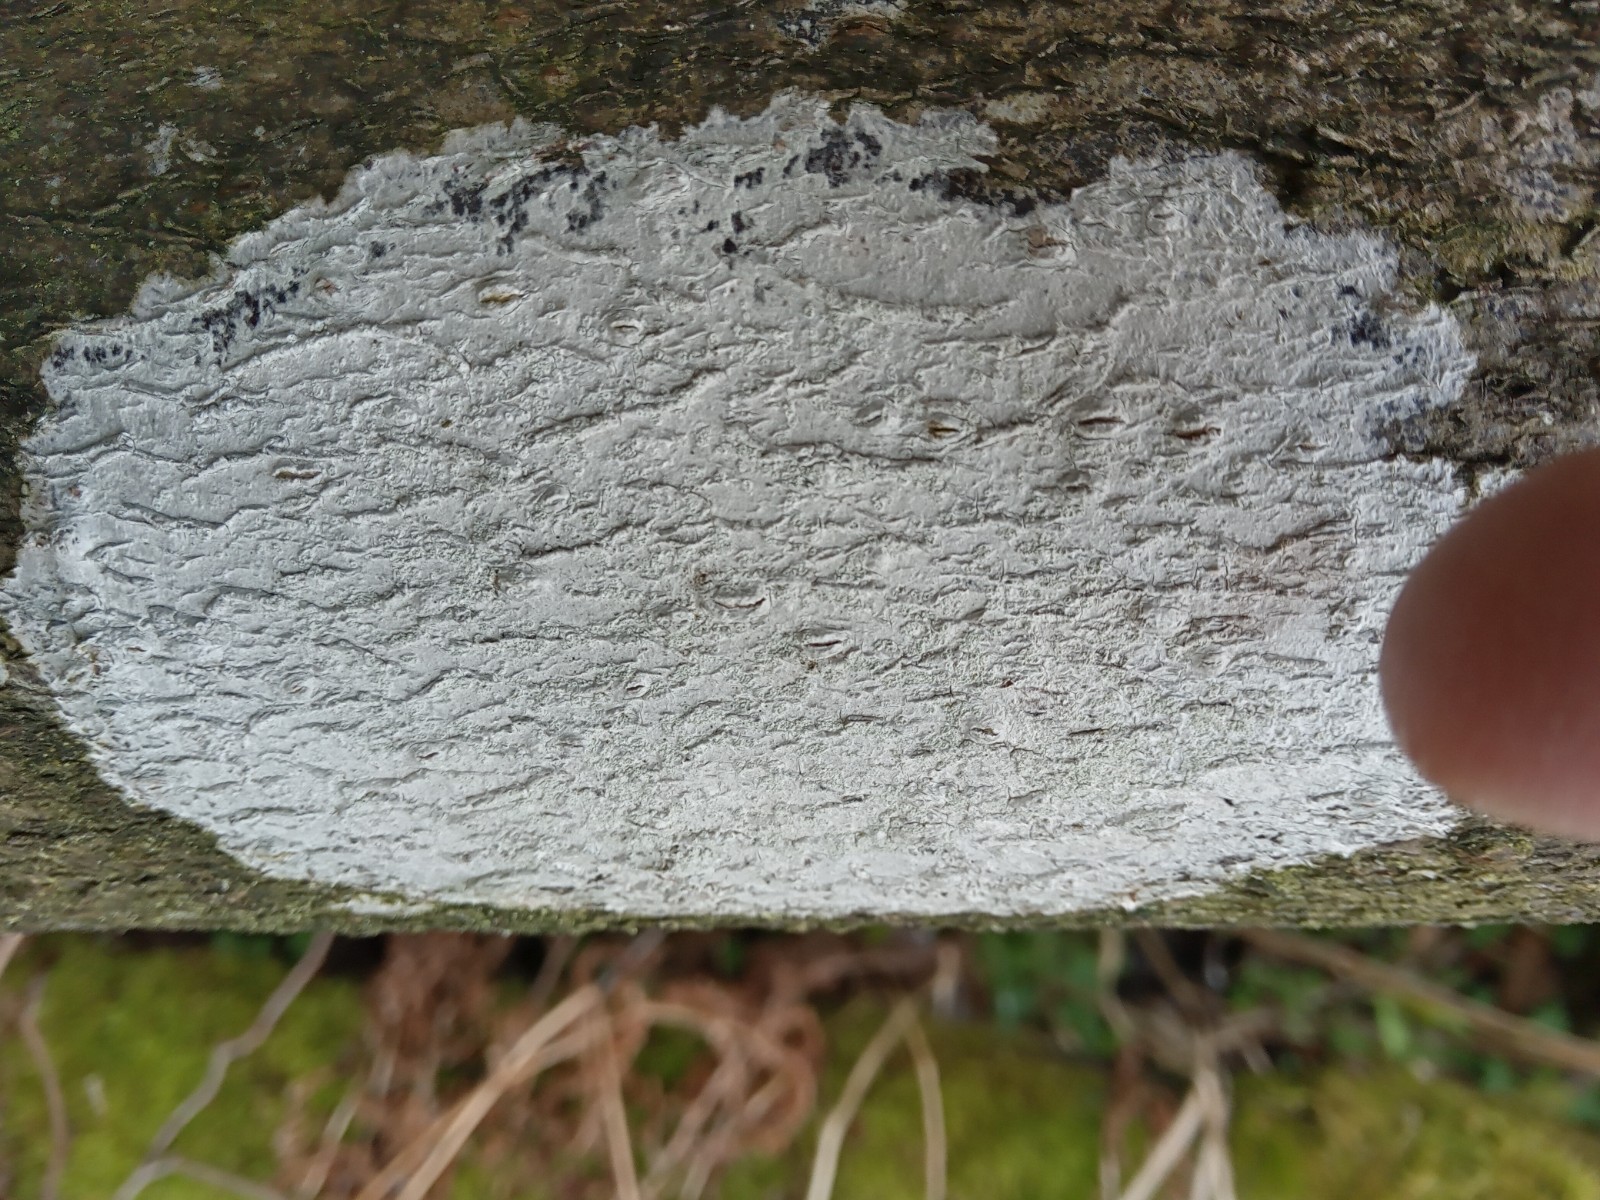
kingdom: Fungi
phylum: Ascomycota
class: Lecanoromycetes
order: Ostropales
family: Phlyctidaceae
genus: Phlyctis
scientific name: Phlyctis argena
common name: almindelig sølvlav
